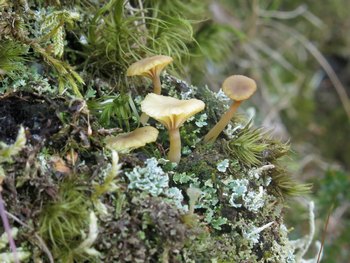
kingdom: Fungi
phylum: Basidiomycota
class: Agaricomycetes
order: Agaricales
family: Hygrophoraceae
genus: Lichenomphalia
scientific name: Lichenomphalia umbellifera
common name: tørve-lavhat
